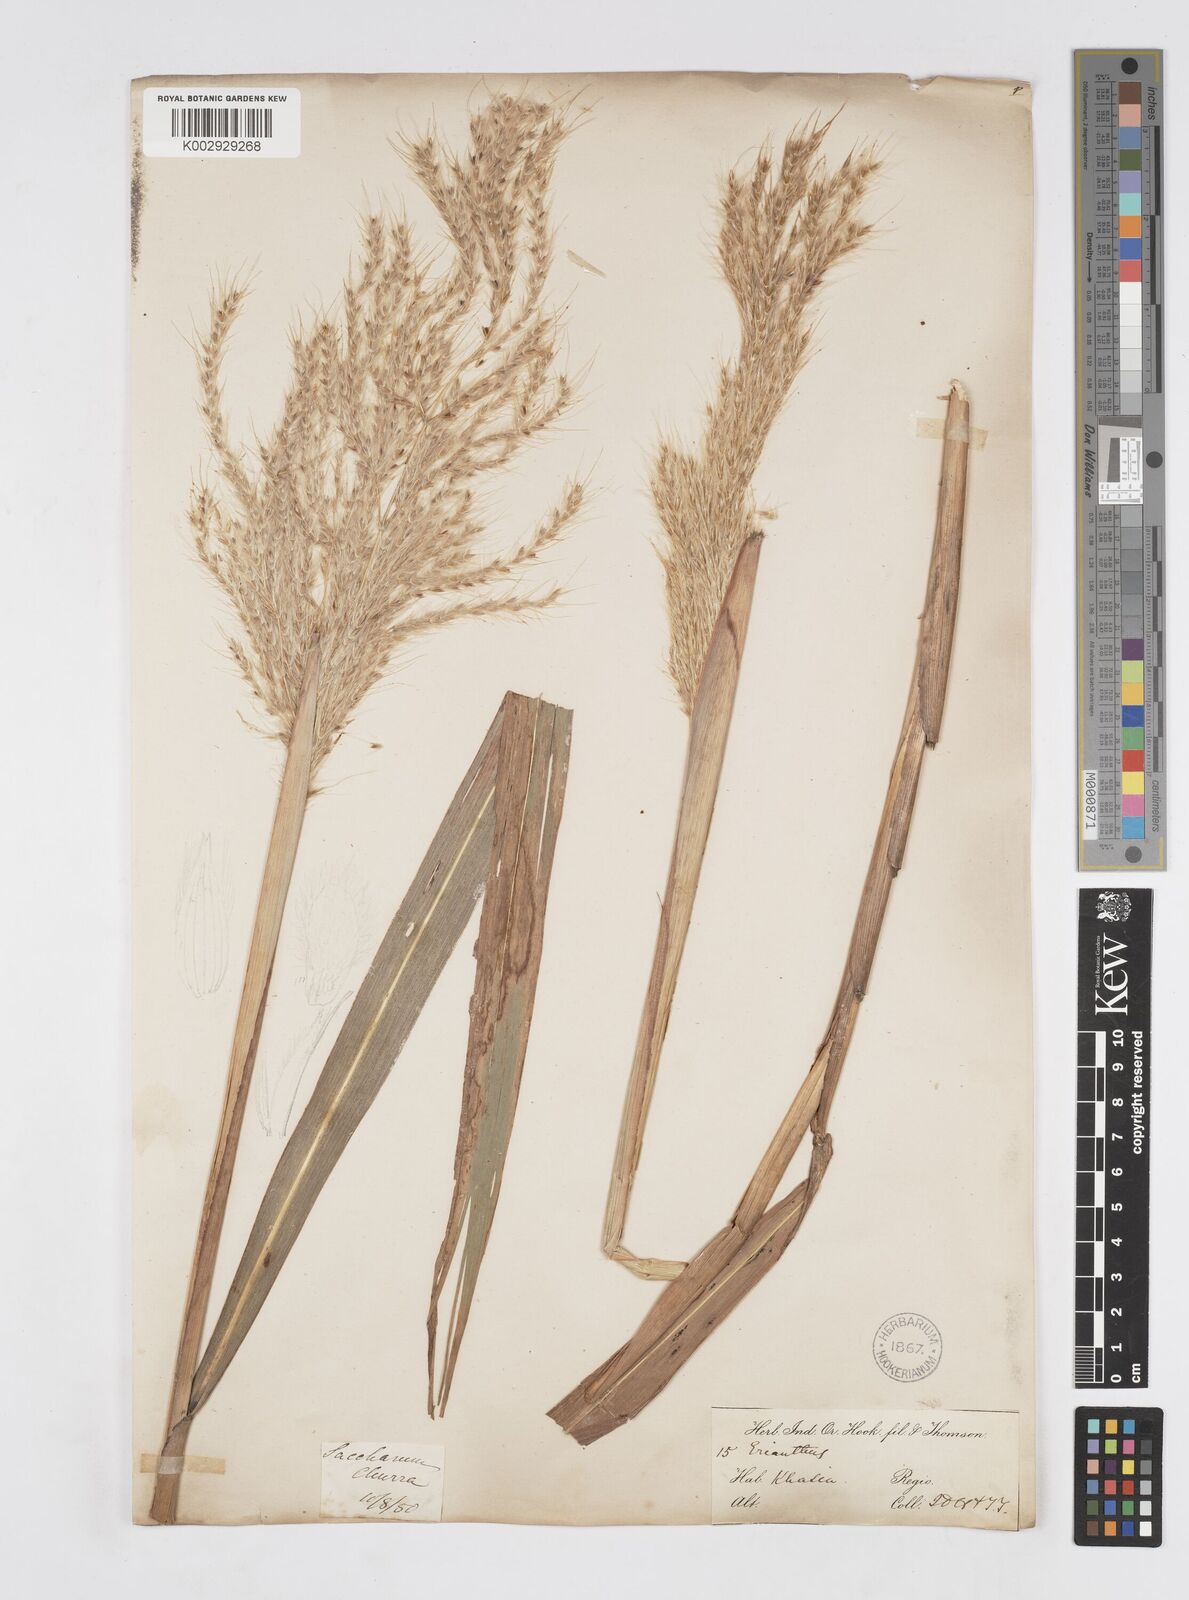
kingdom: Plantae
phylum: Tracheophyta
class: Liliopsida
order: Poales
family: Poaceae
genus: Saccharum
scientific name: Saccharum longesetosum
